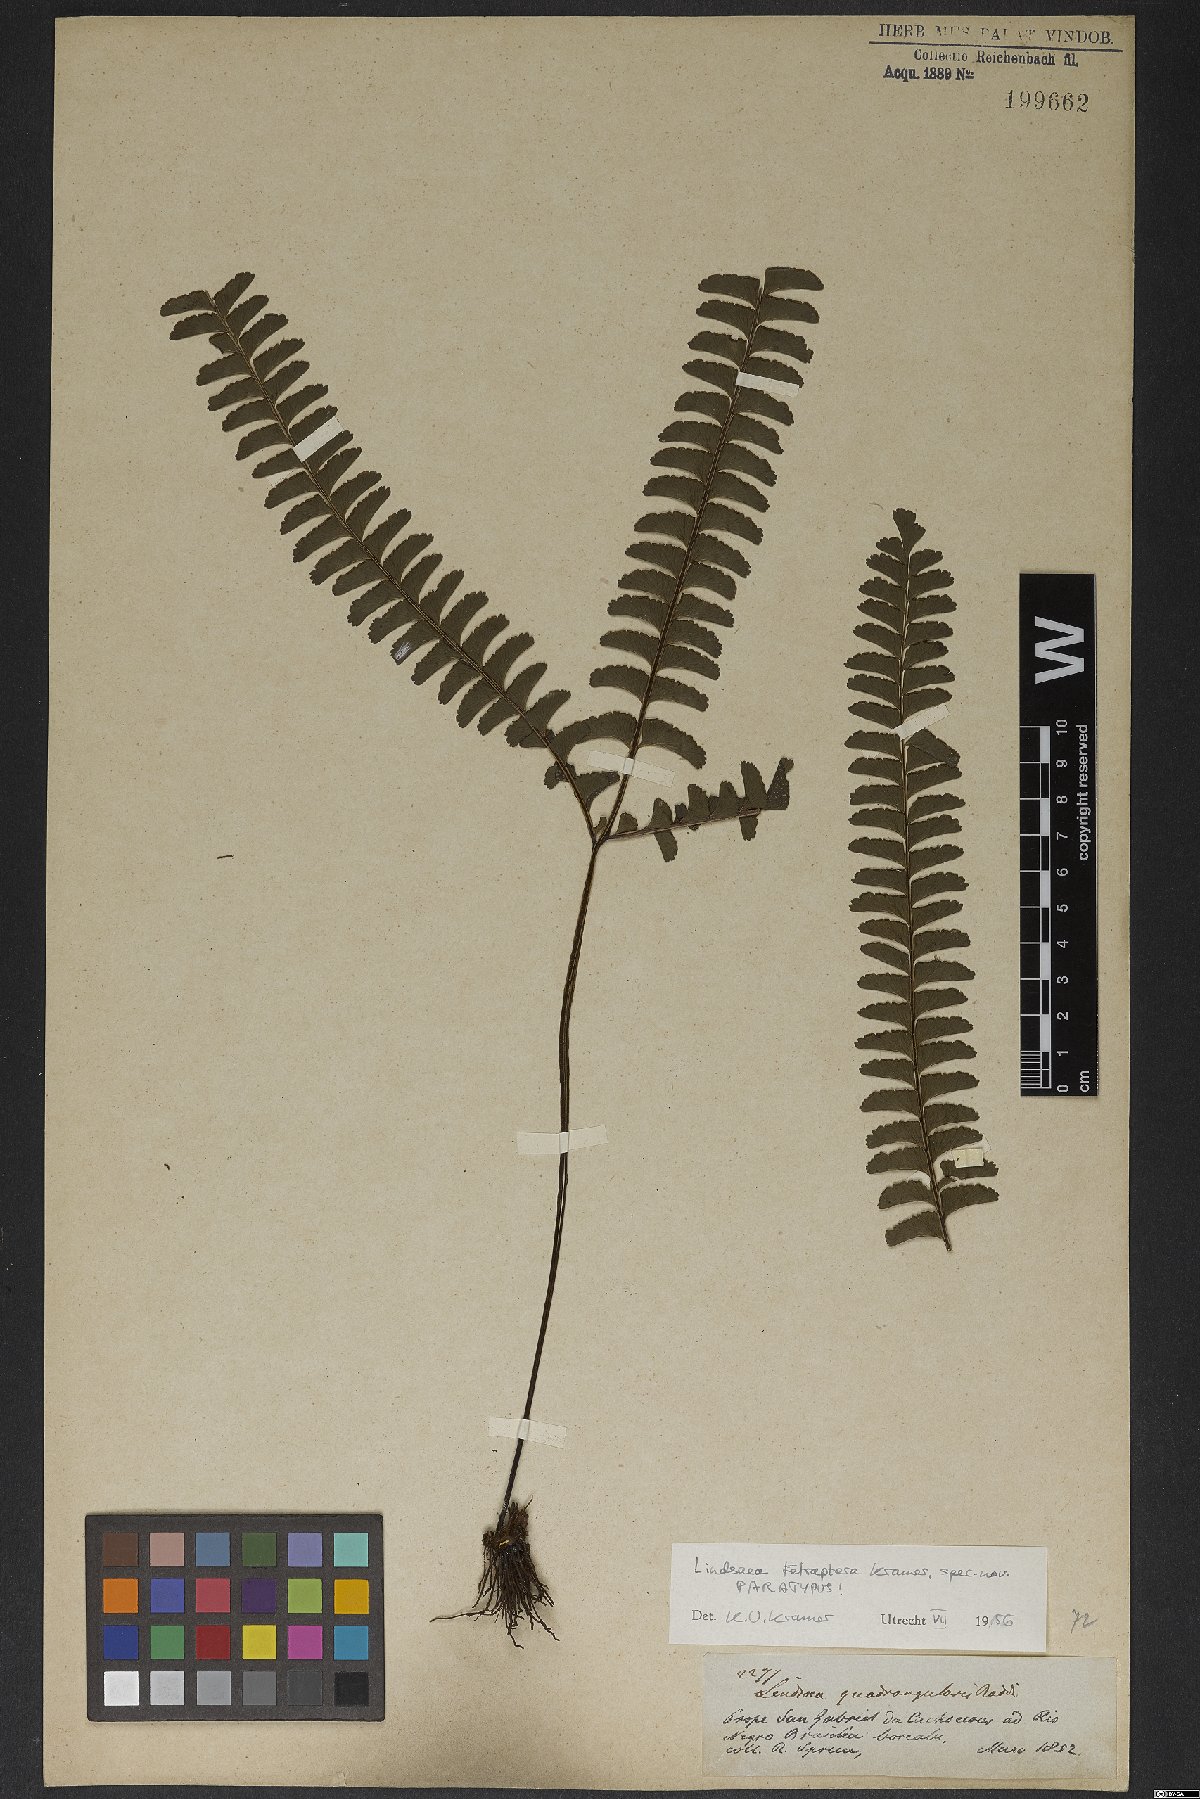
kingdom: Plantae
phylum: Tracheophyta
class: Polypodiopsida
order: Polypodiales
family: Lindsaeaceae
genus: Lindsaea
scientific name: Lindsaea tetraptera
